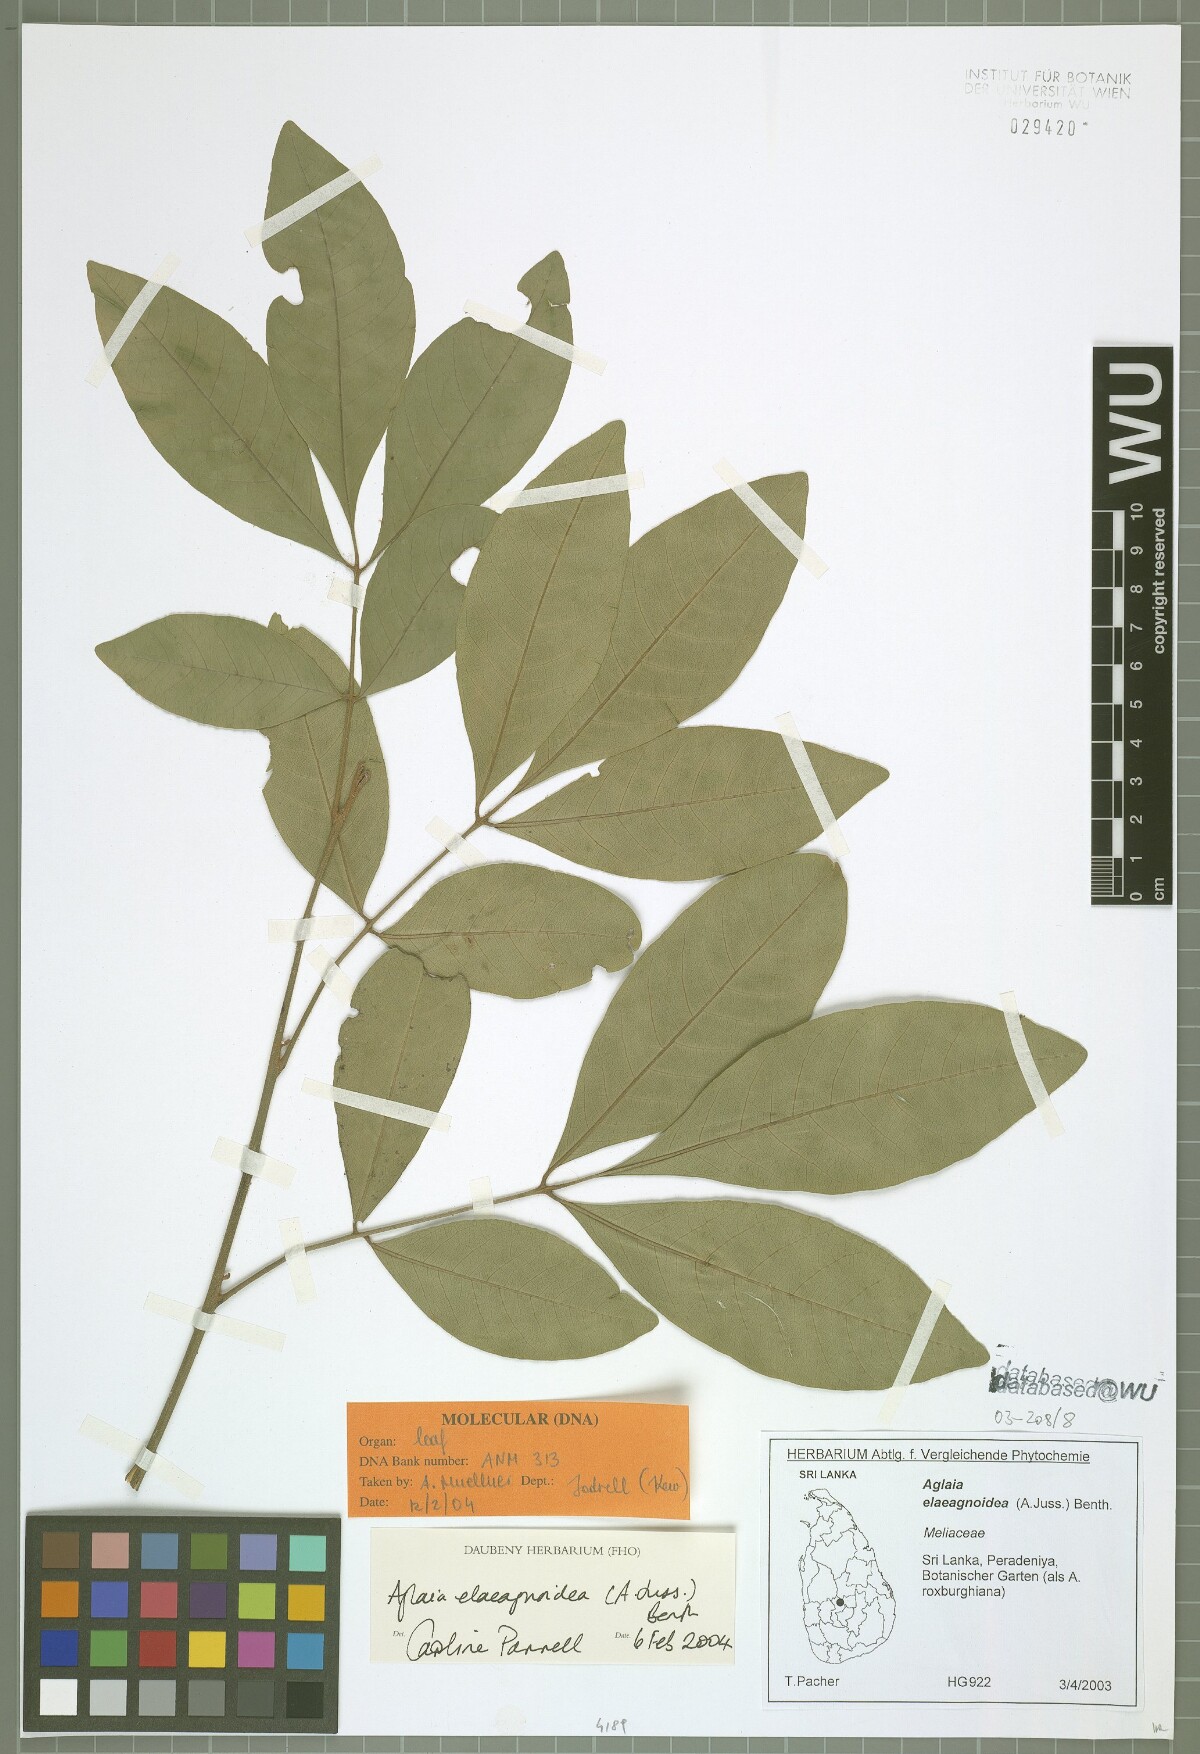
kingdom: Plantae
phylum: Tracheophyta
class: Magnoliopsida
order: Sapindales
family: Meliaceae
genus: Aglaia
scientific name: Aglaia elaeagnoidea
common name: Droopyleaf
